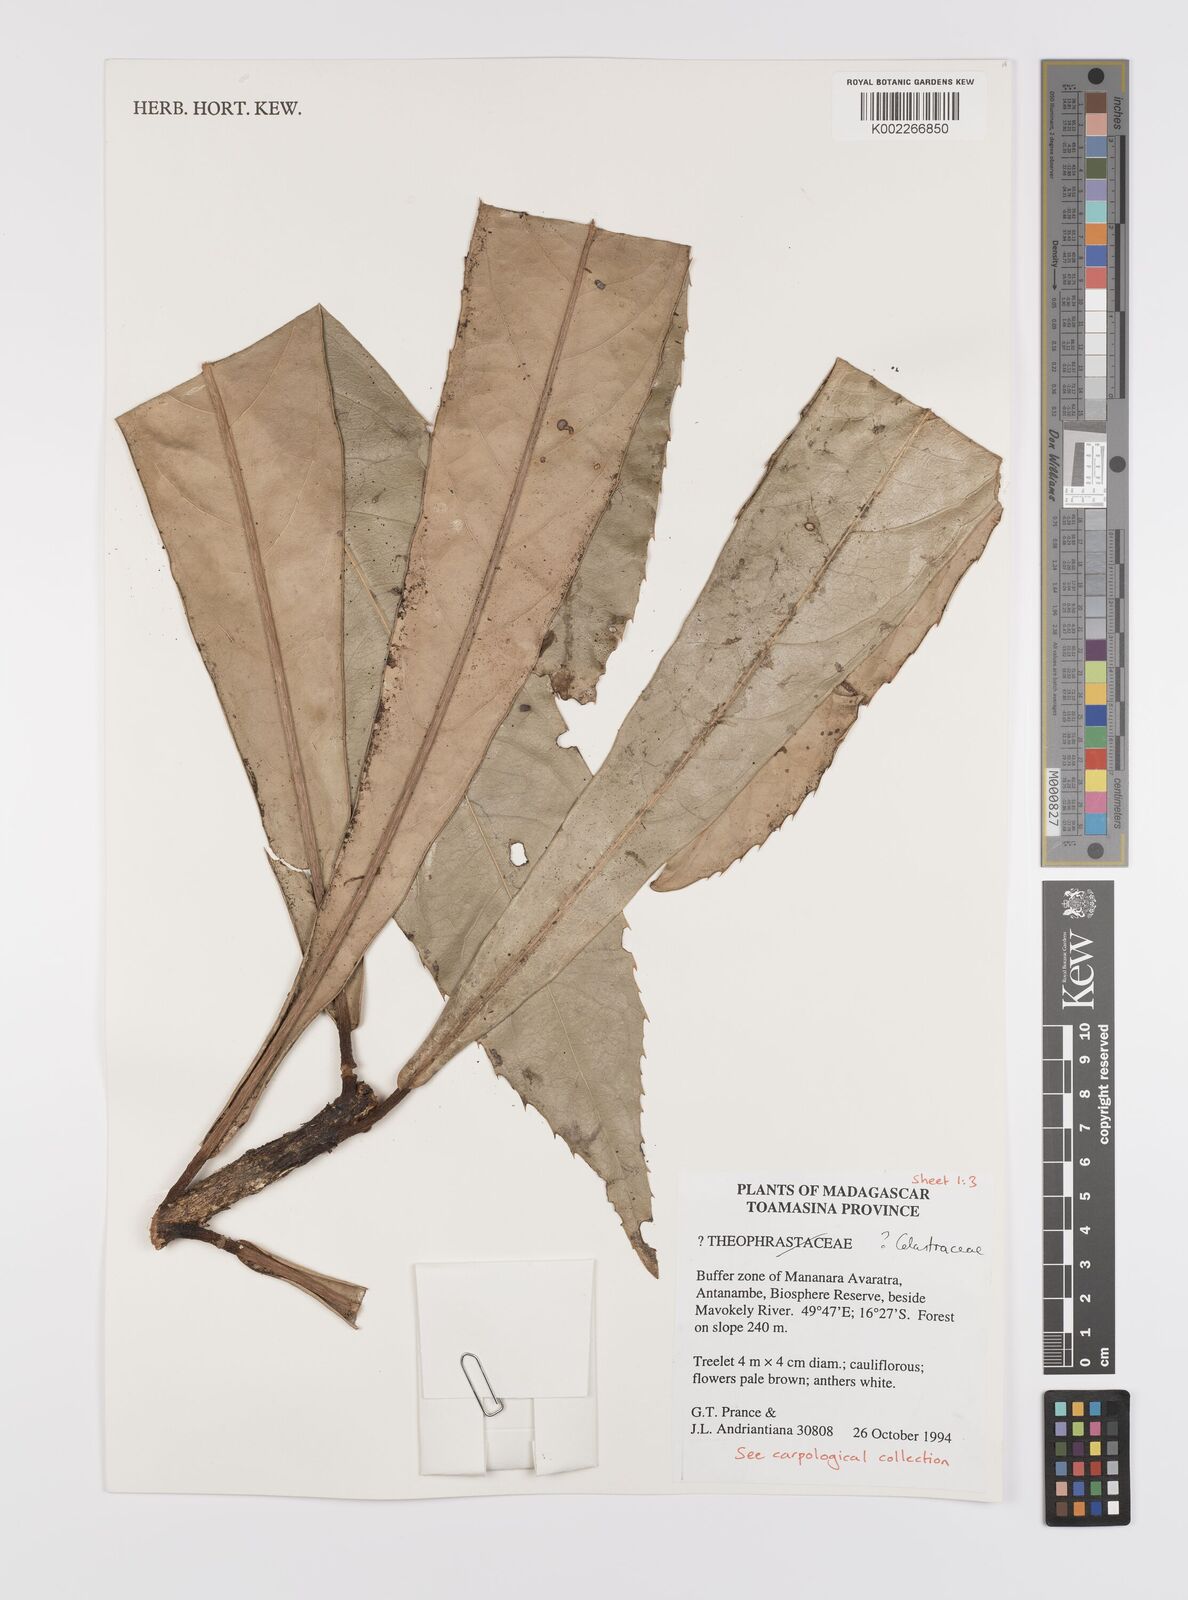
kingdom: Plantae
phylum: Tracheophyta
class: Magnoliopsida
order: Celastrales
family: Celastraceae
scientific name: Celastraceae
